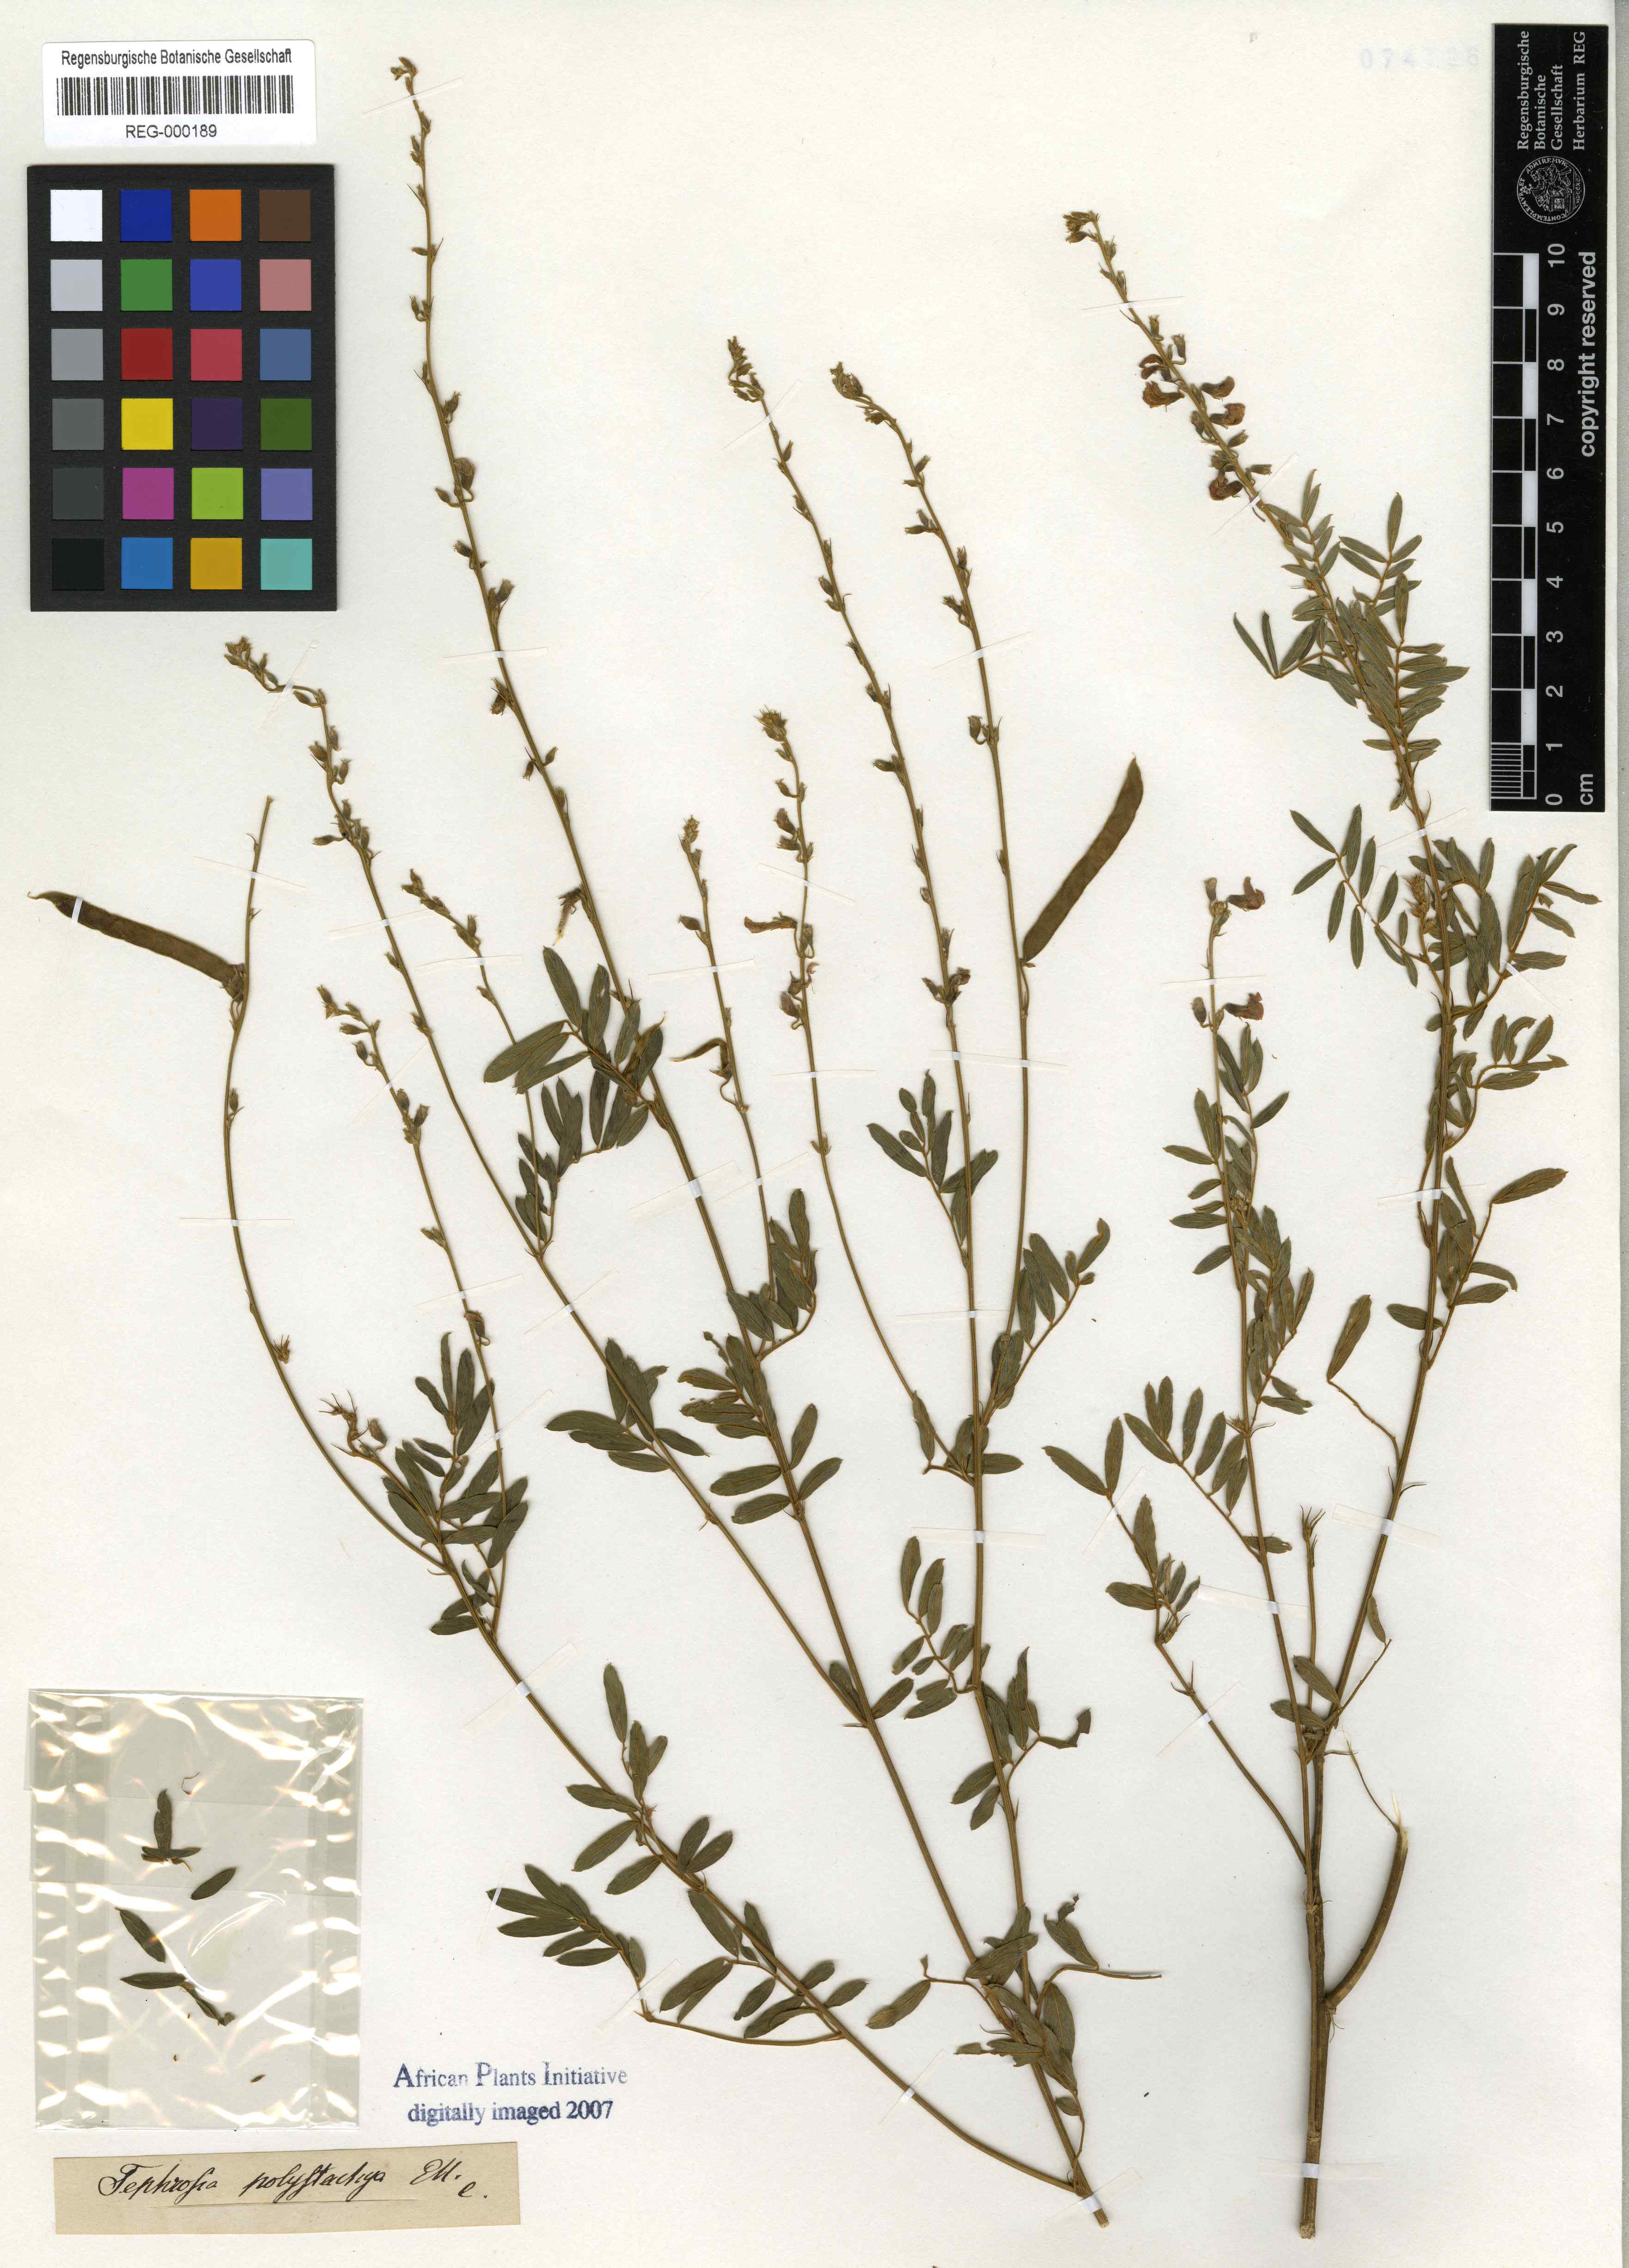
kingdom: Plantae
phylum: Tracheophyta
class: Magnoliopsida
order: Fabales
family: Fabaceae
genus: Tephrosia
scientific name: Tephrosia polystachya
